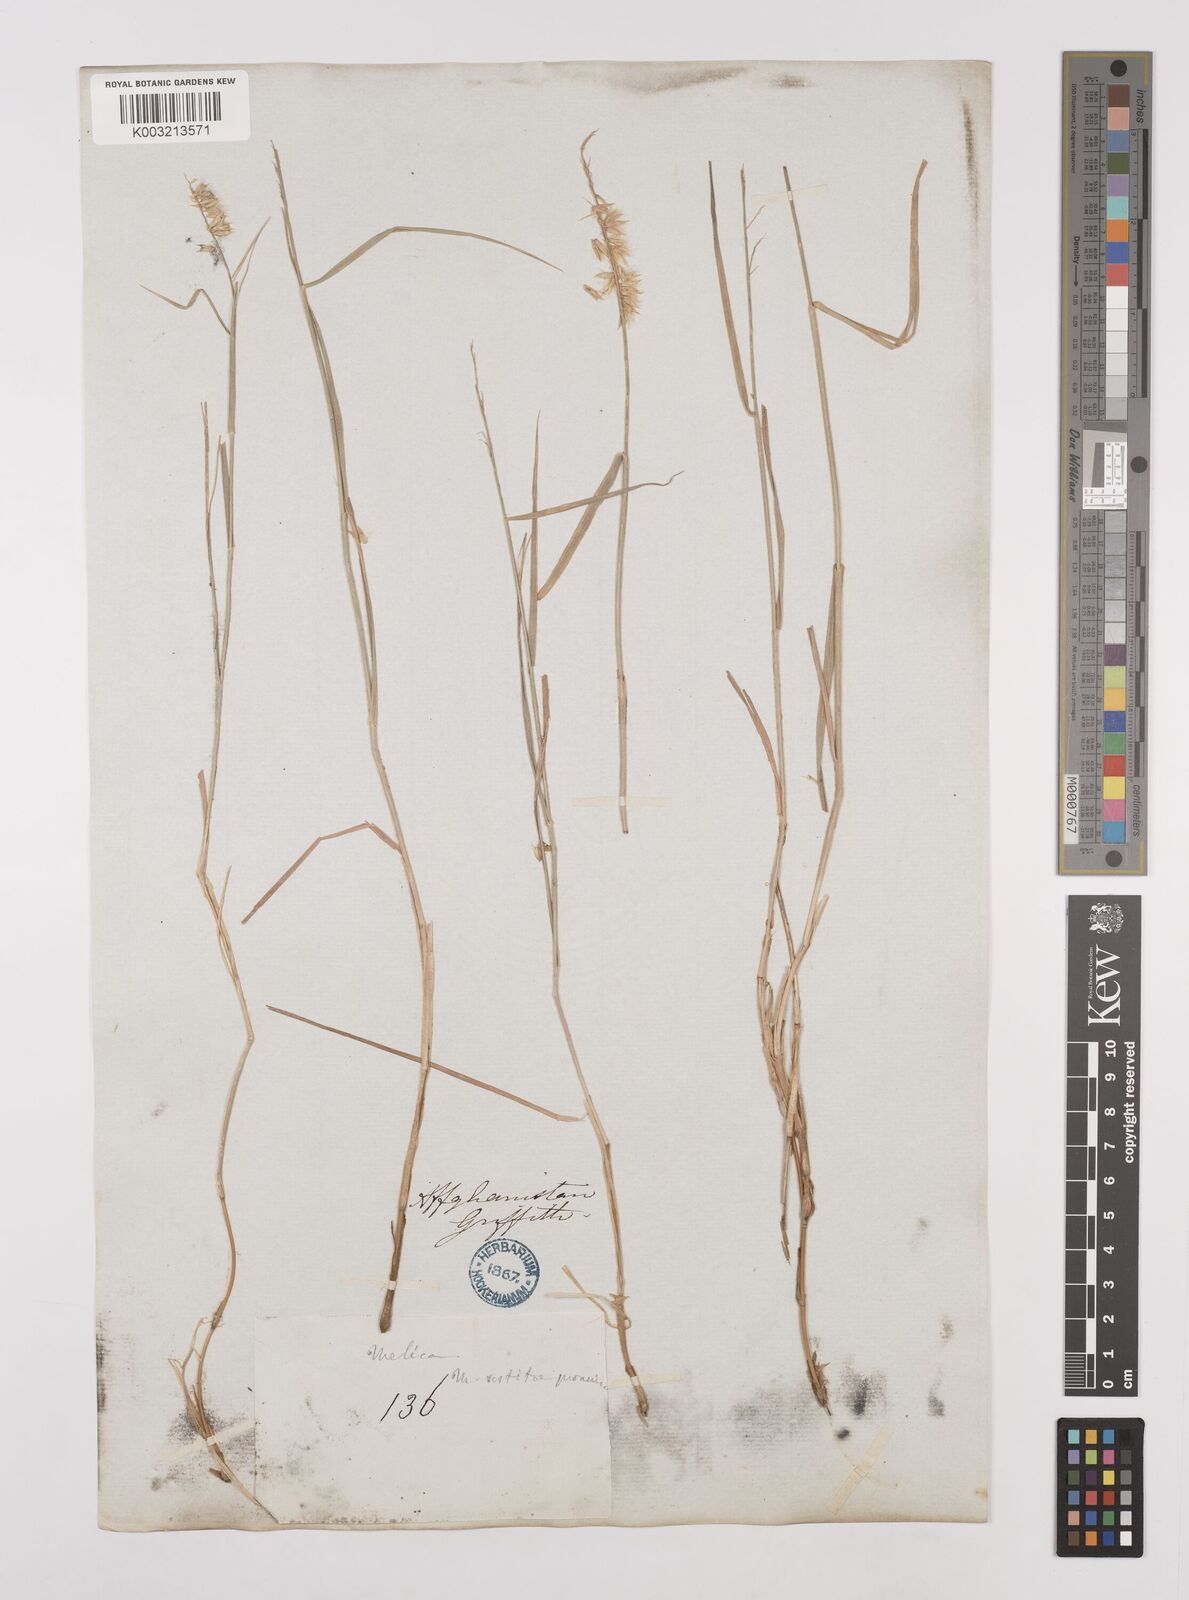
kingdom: Plantae
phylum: Tracheophyta
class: Liliopsida
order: Poales
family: Poaceae
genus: Melica
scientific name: Melica persica
